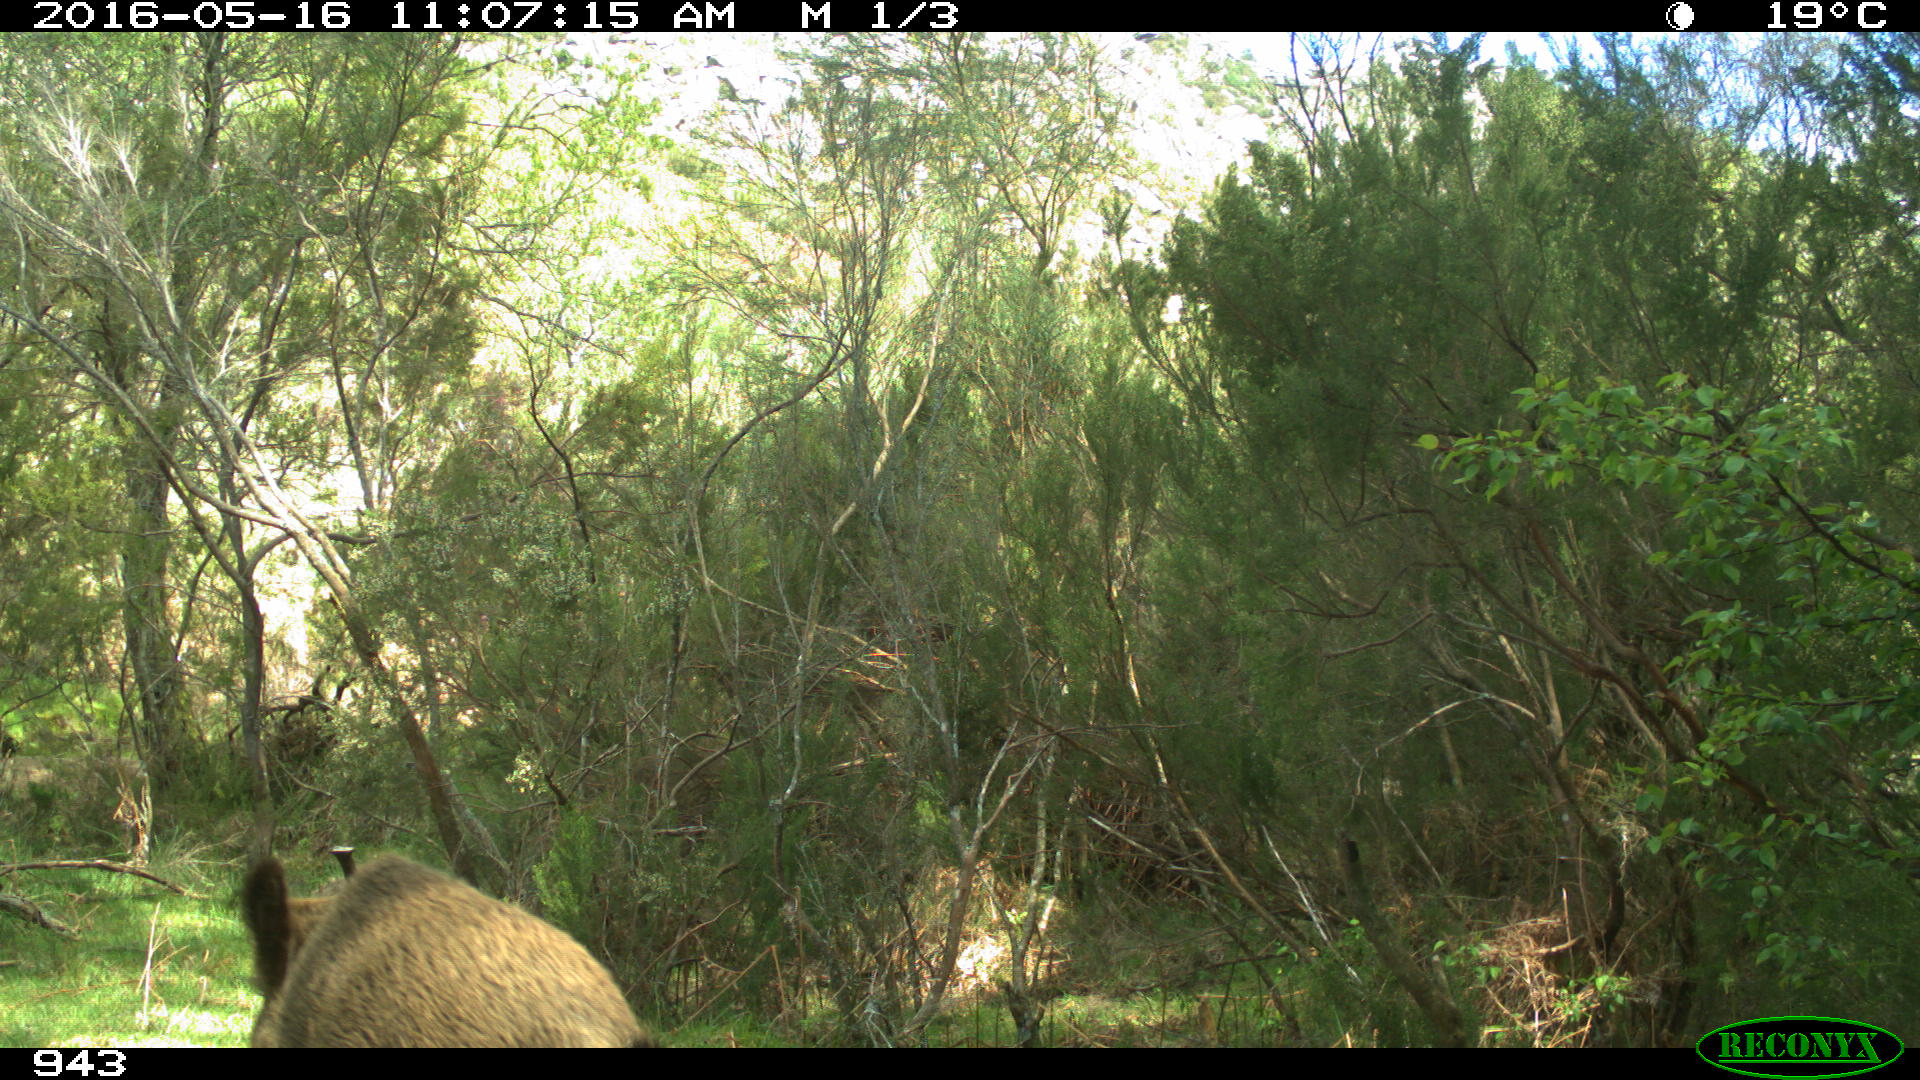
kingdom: Animalia
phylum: Chordata
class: Mammalia
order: Artiodactyla
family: Suidae
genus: Sus
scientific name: Sus scrofa
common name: Wild boar
